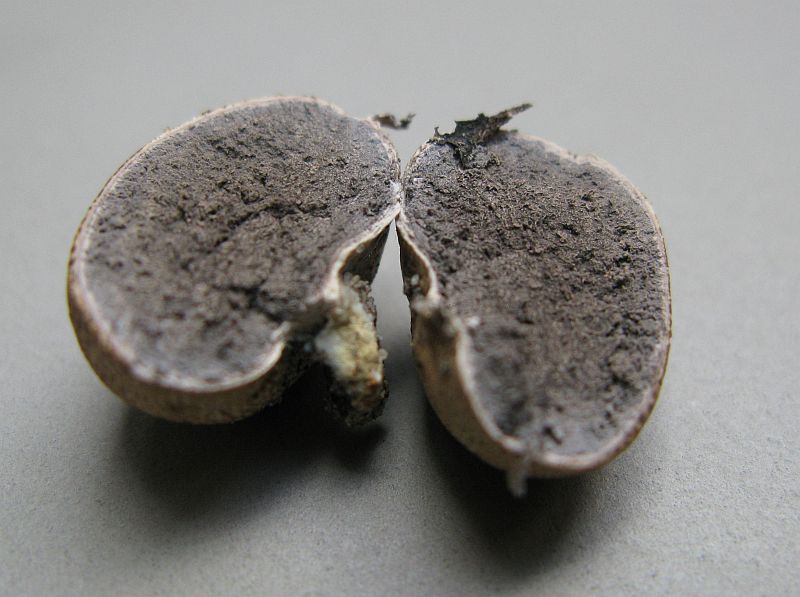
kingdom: Fungi
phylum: Basidiomycota
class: Agaricomycetes
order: Boletales
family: Sclerodermataceae
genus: Scleroderma
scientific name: Scleroderma areolatum
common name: plettet bruskbold
